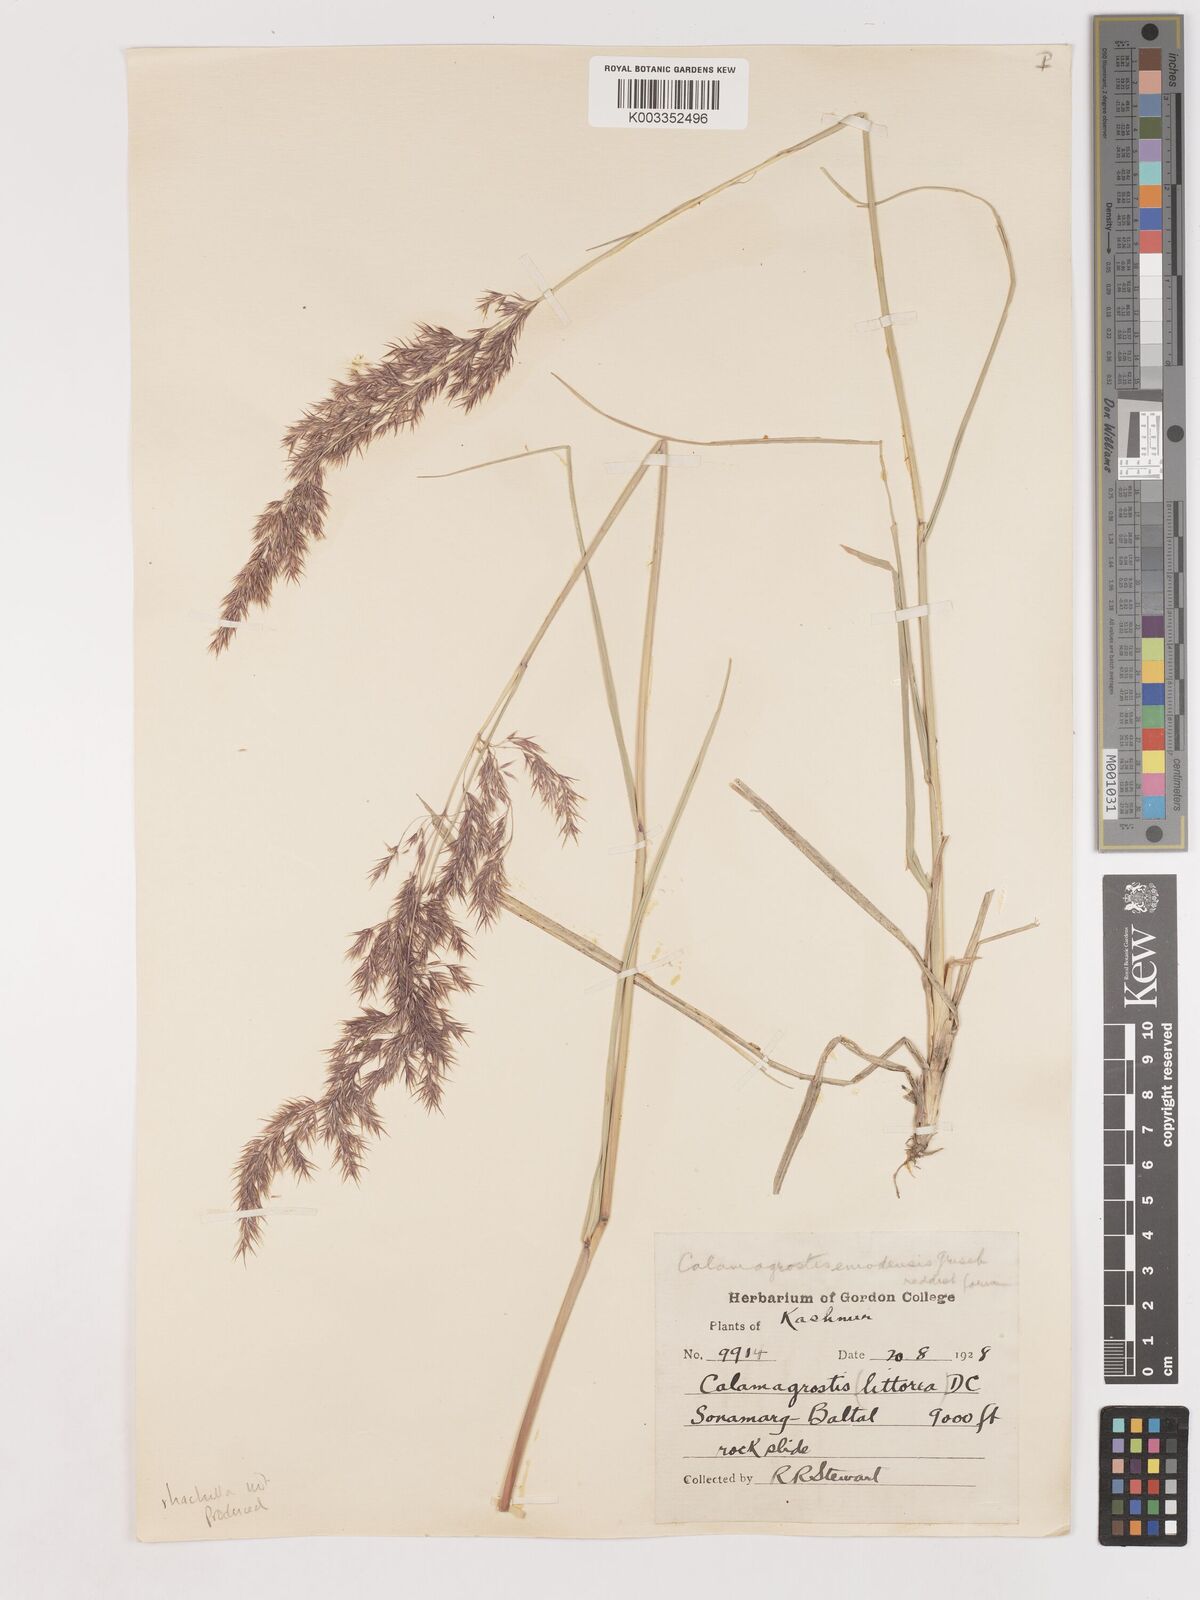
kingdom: Plantae
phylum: Tracheophyta
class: Liliopsida
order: Poales
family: Poaceae
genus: Calamagrostis
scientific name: Calamagrostis epigejos
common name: Wood small-reed
